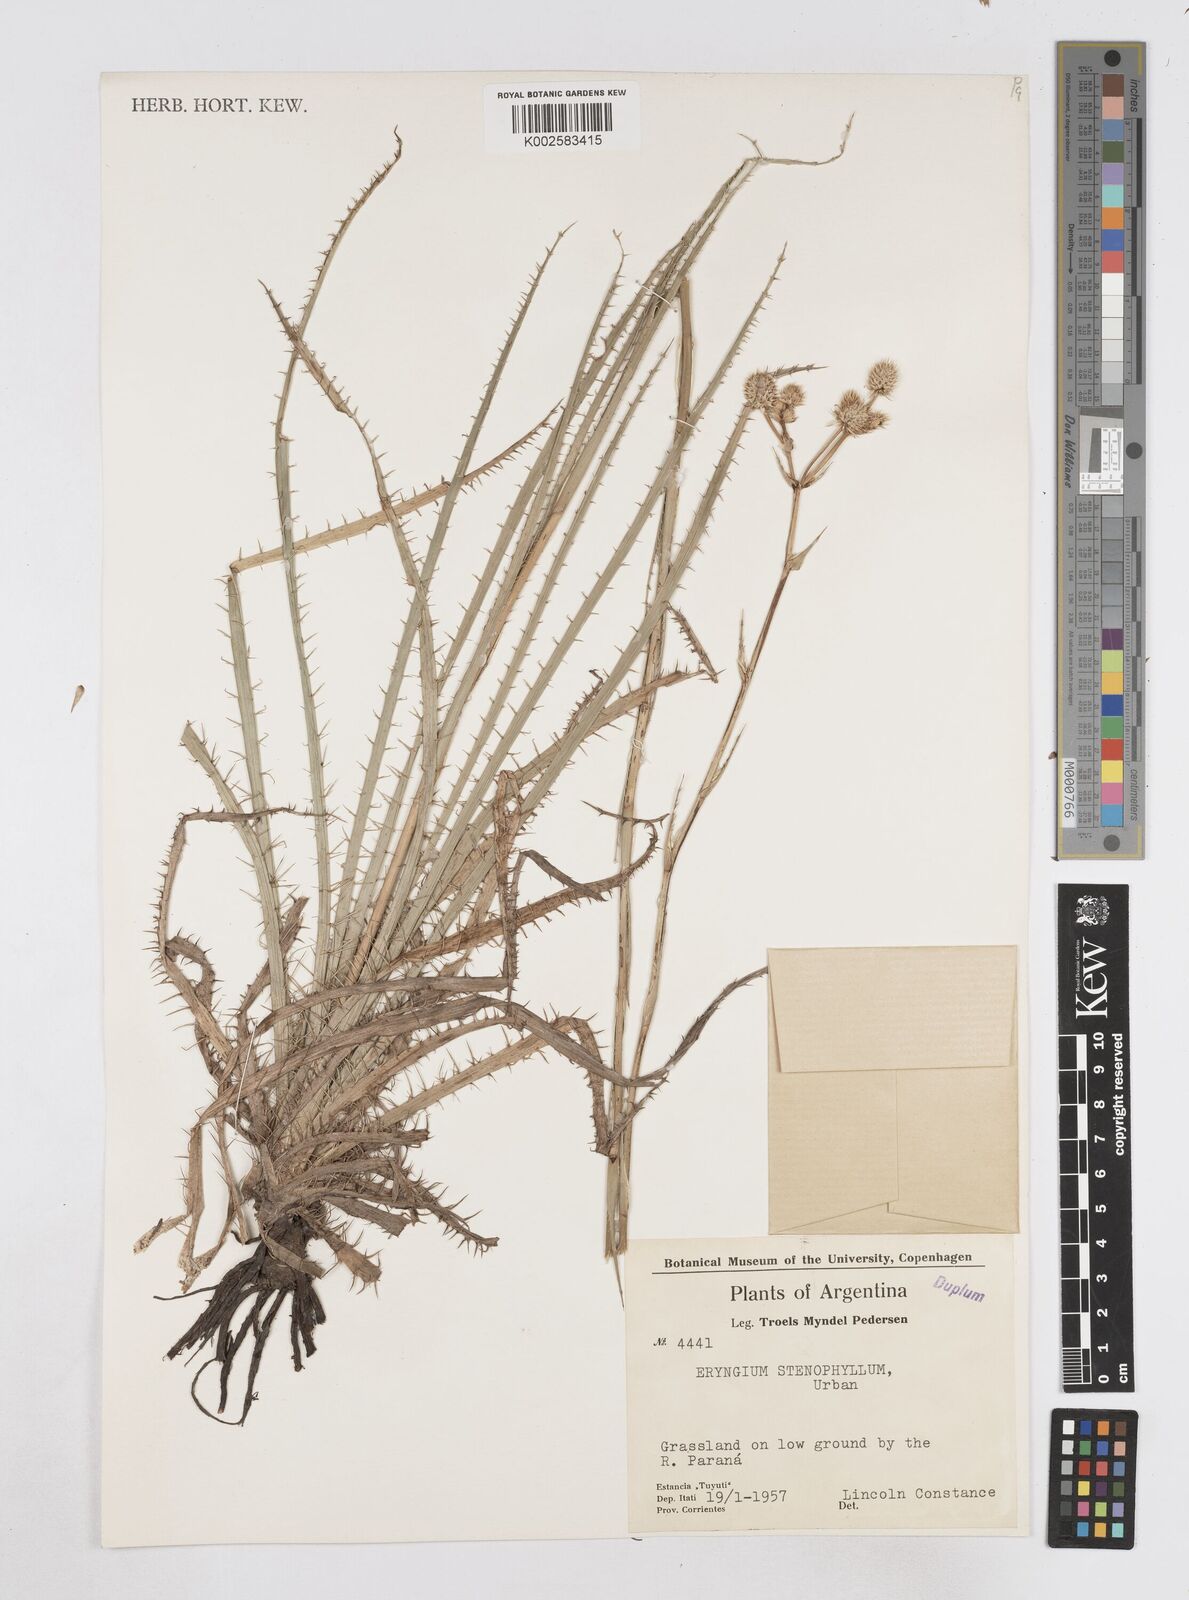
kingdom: Plantae
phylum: Tracheophyta
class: Magnoliopsida
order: Apiales
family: Apiaceae
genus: Eryngium
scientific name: Eryngium stenophyllum
